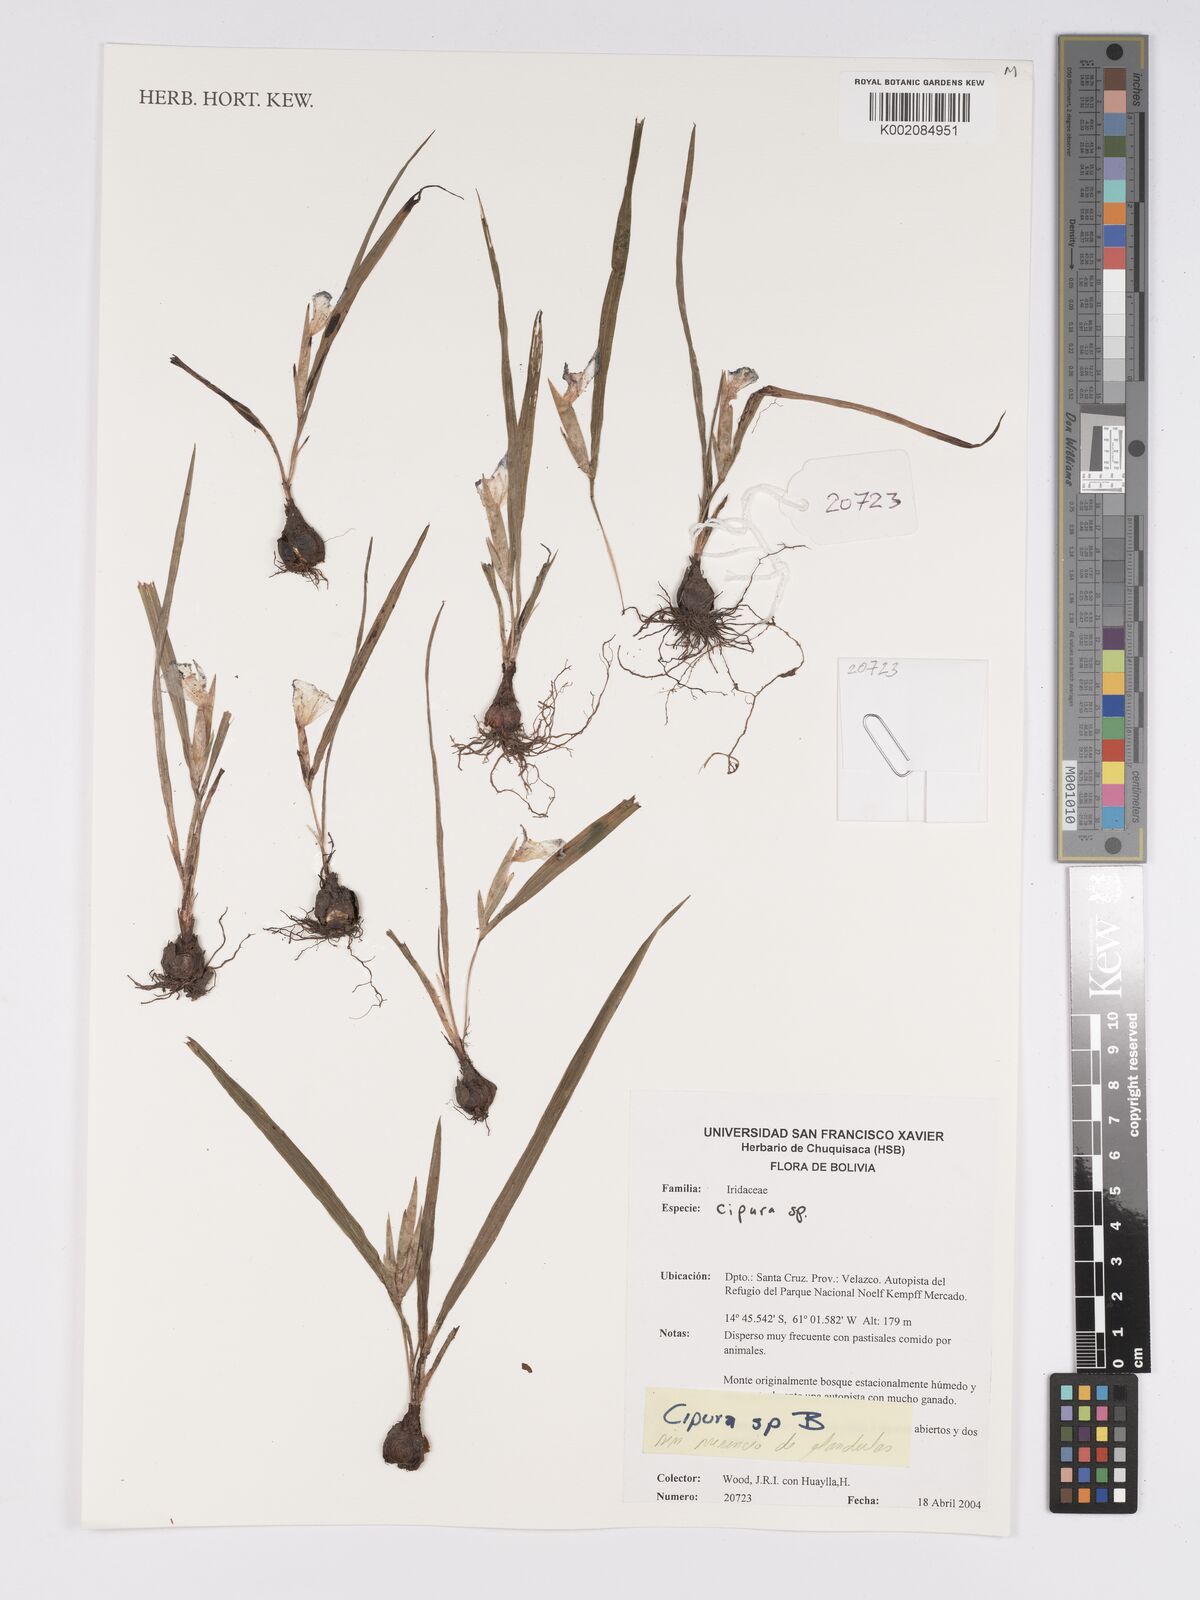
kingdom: Plantae
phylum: Tracheophyta
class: Liliopsida
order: Asparagales
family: Iridaceae
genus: Cipura
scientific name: Cipura
